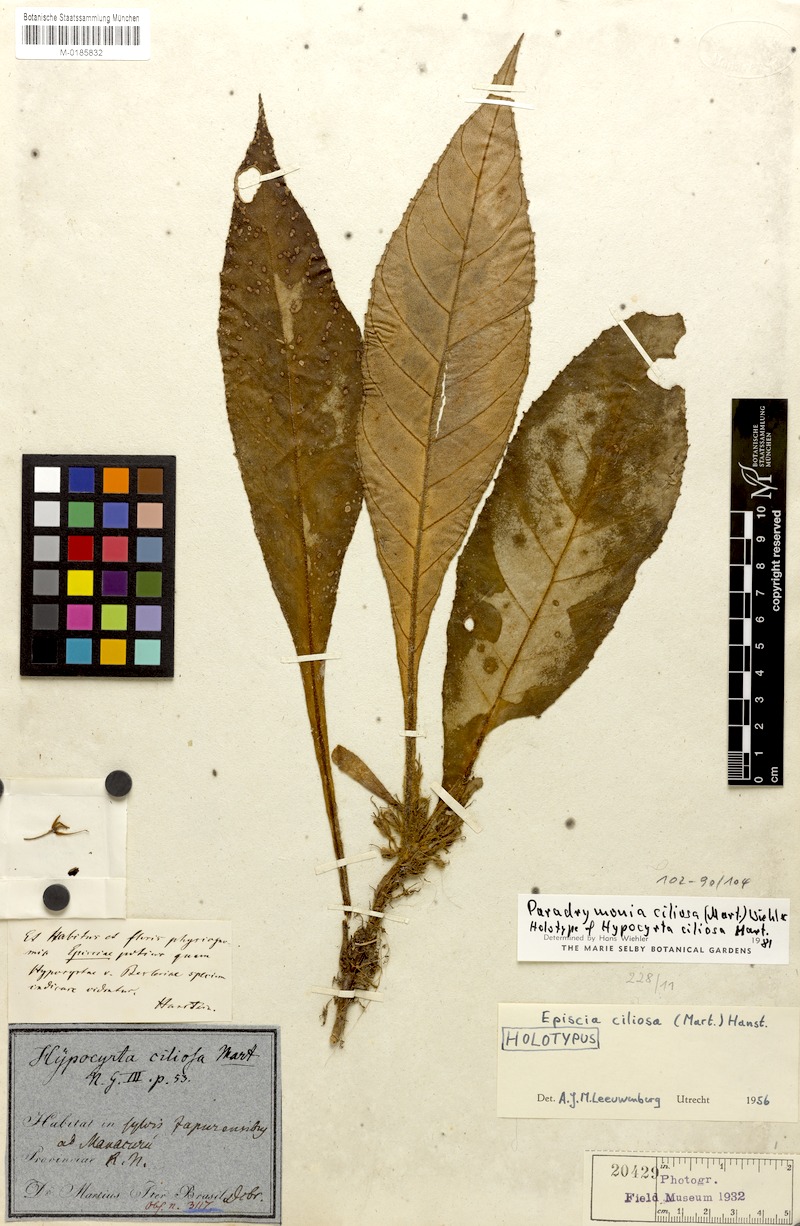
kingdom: Plantae
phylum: Tracheophyta
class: Magnoliopsida
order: Lamiales
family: Gesneriaceae
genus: Paradrymonia
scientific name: Paradrymonia ciliosa
